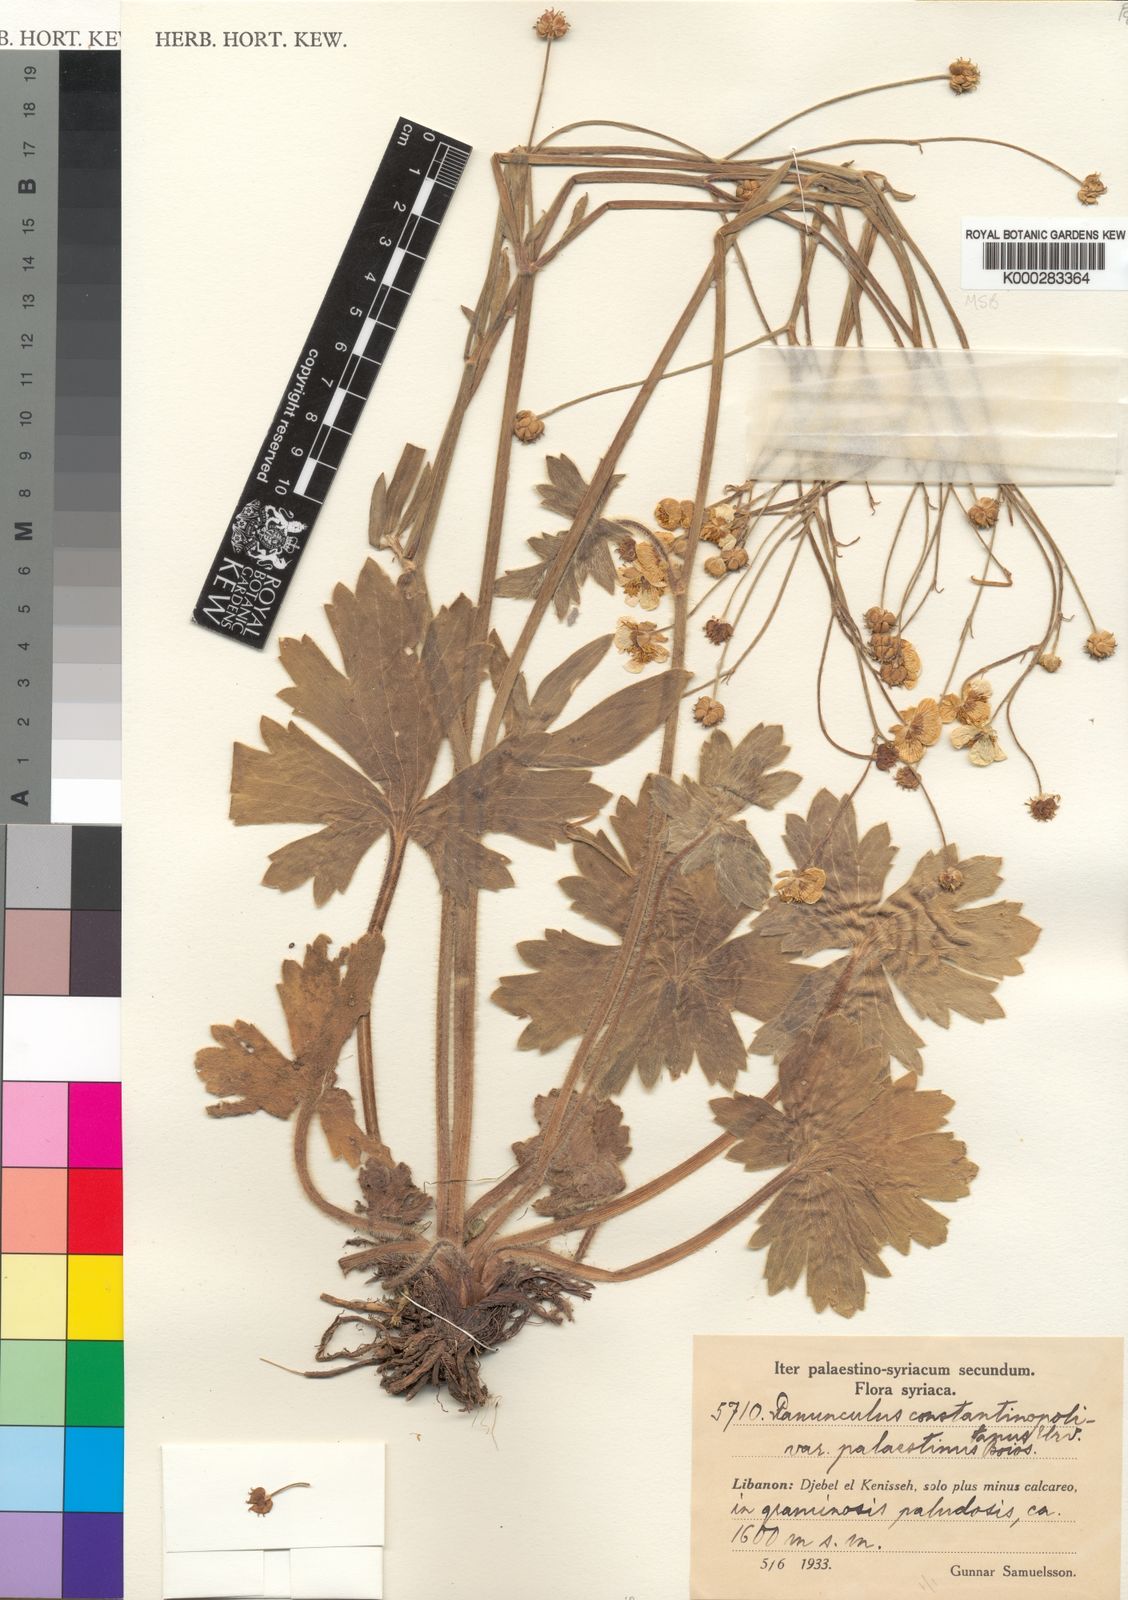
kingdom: Plantae
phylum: Tracheophyta
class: Magnoliopsida
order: Ranunculales
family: Ranunculaceae
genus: Ranunculus
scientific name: Ranunculus constantinopolitanus
